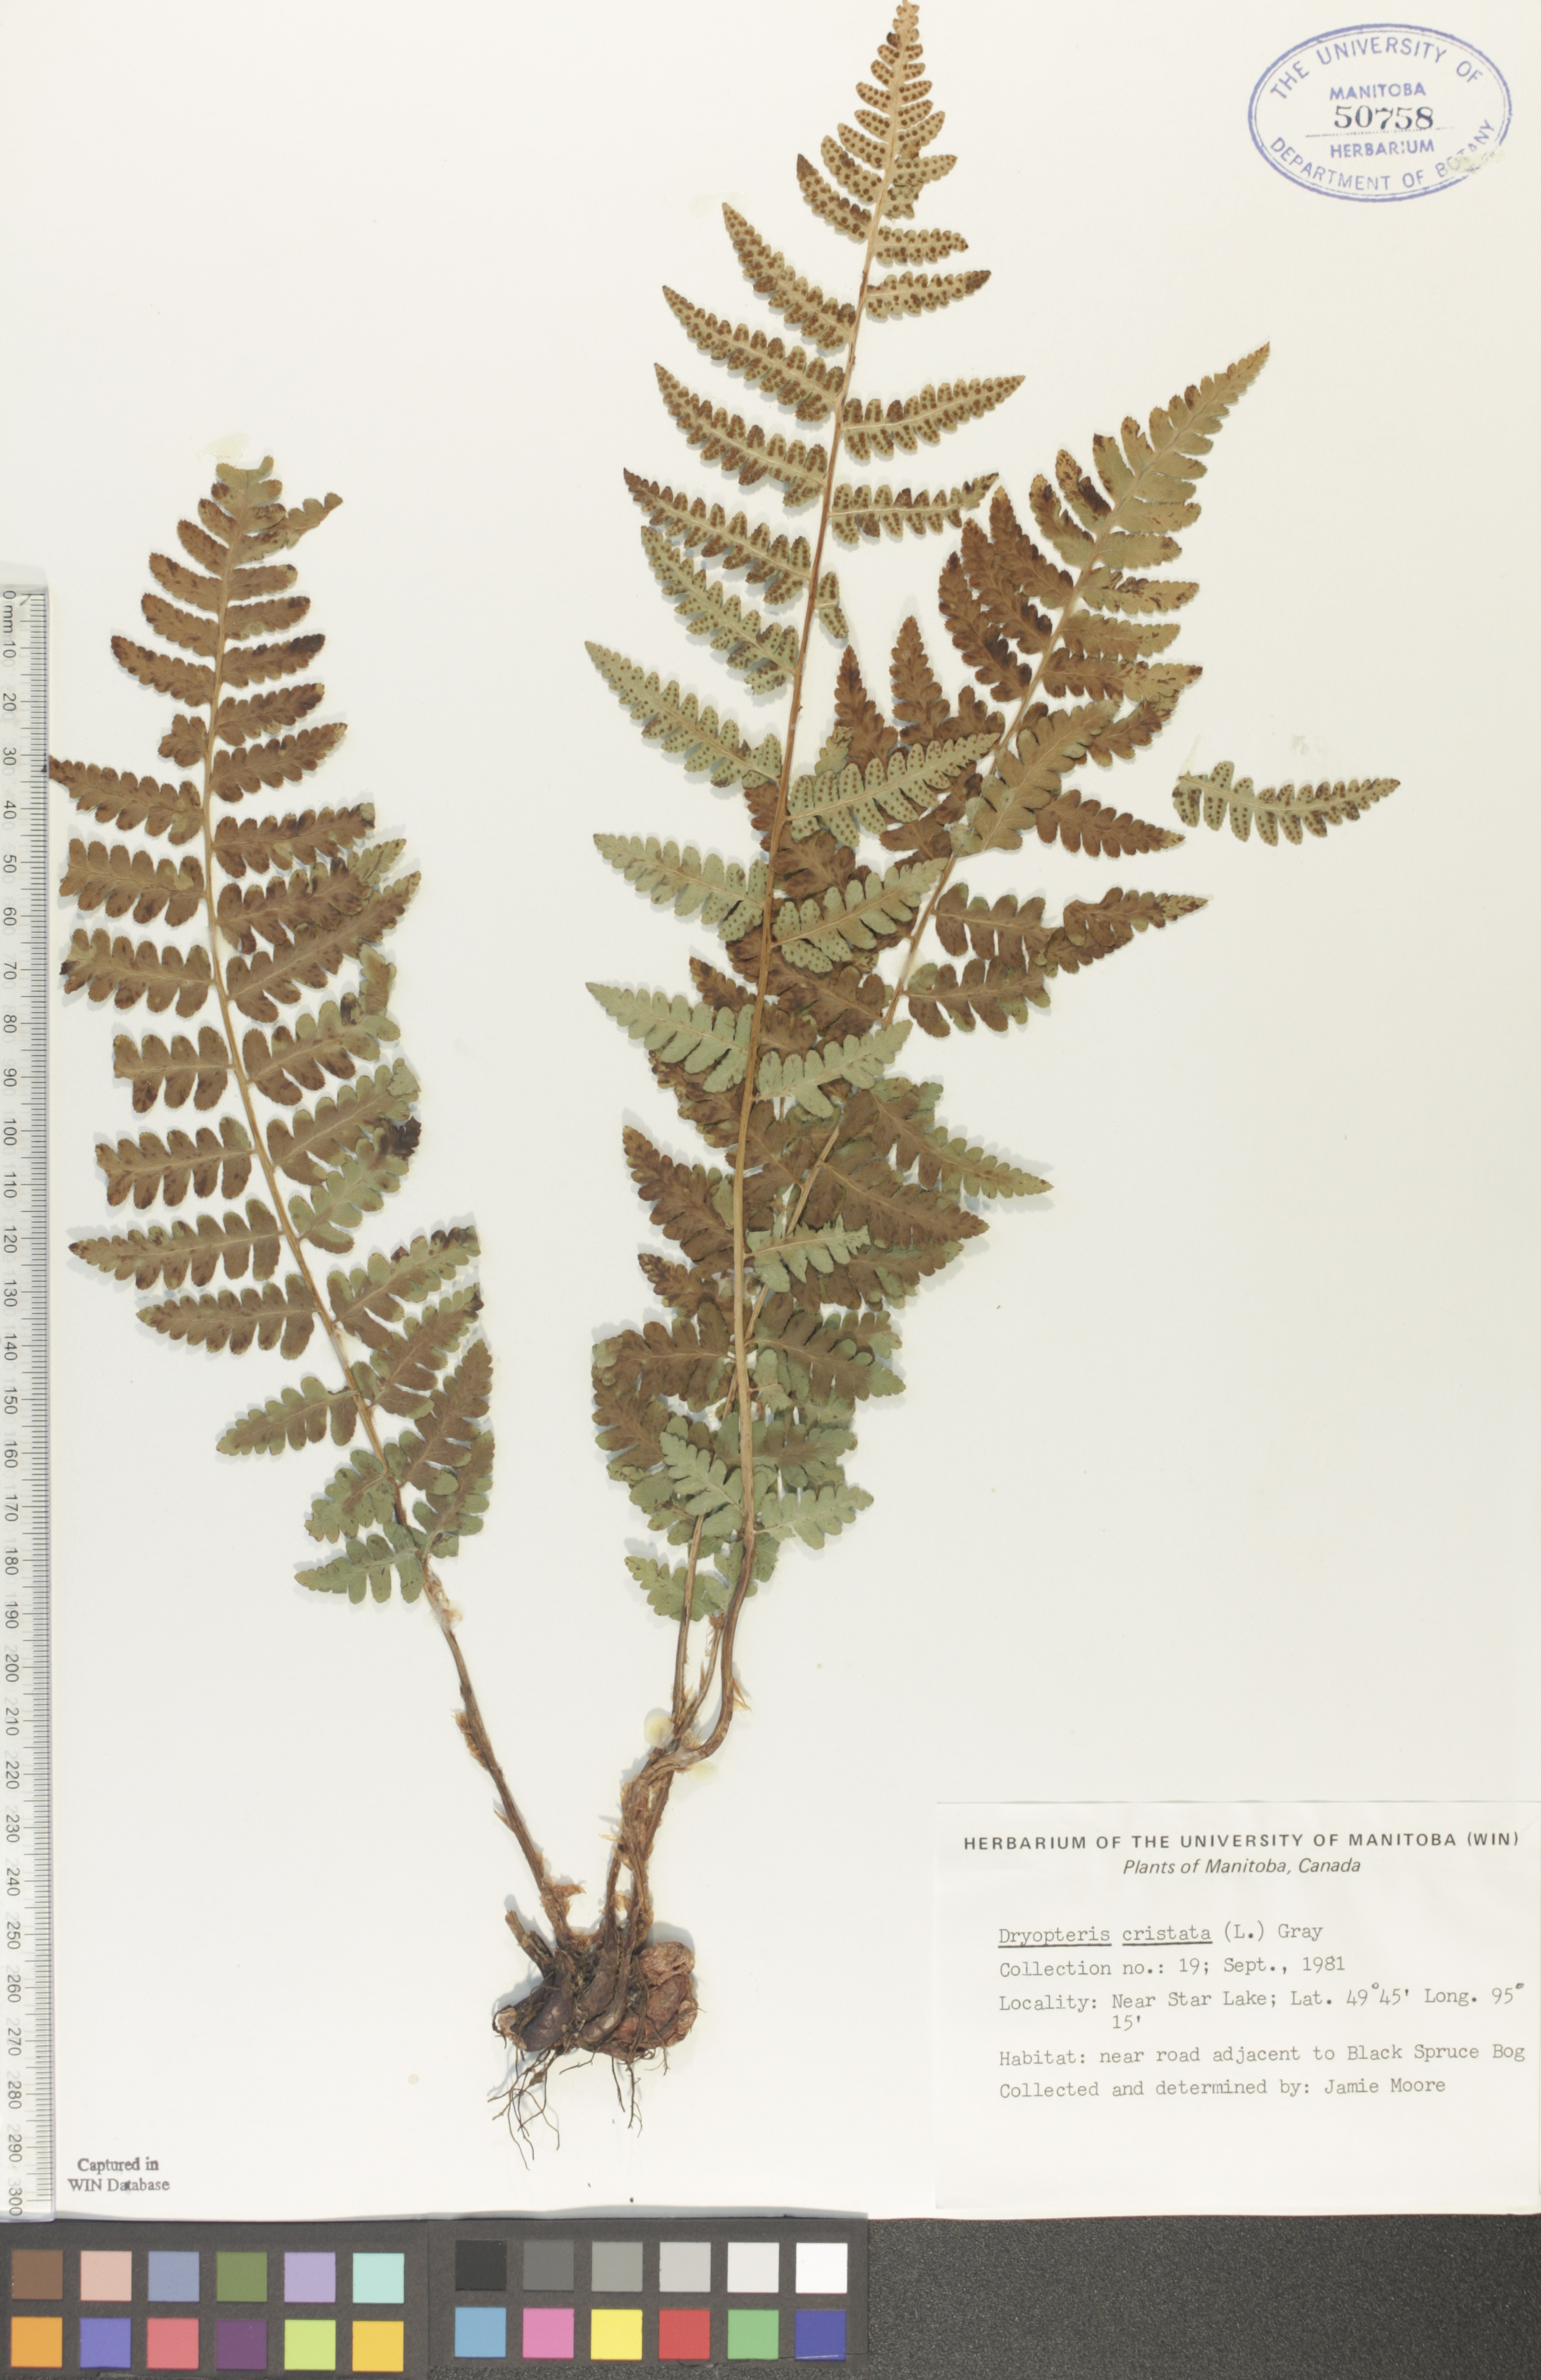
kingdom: Plantae
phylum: Tracheophyta
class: Polypodiopsida
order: Polypodiales
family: Dryopteridaceae
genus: Dryopteris
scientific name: Dryopteris cristata
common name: Crested wood fern
